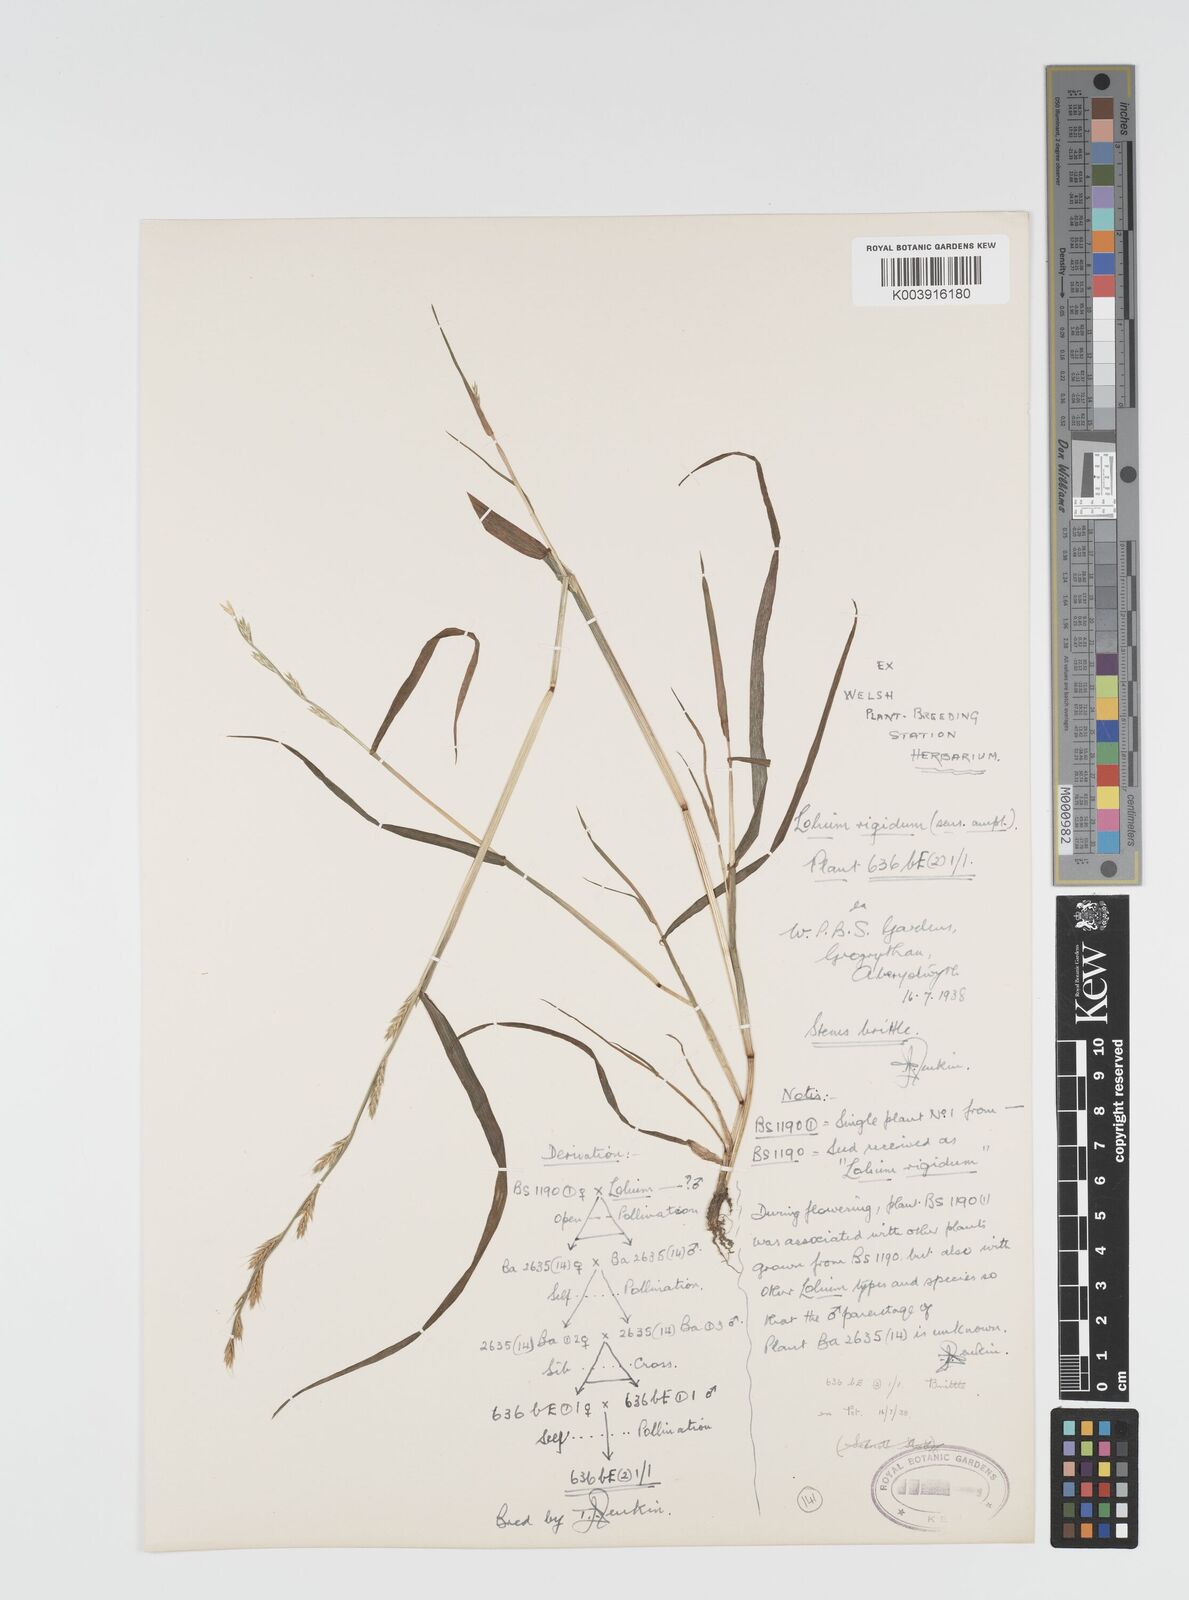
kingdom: Plantae
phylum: Tracheophyta
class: Liliopsida
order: Poales
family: Poaceae
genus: Lolium
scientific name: Lolium rigidum
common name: Wimmera ryegrass
